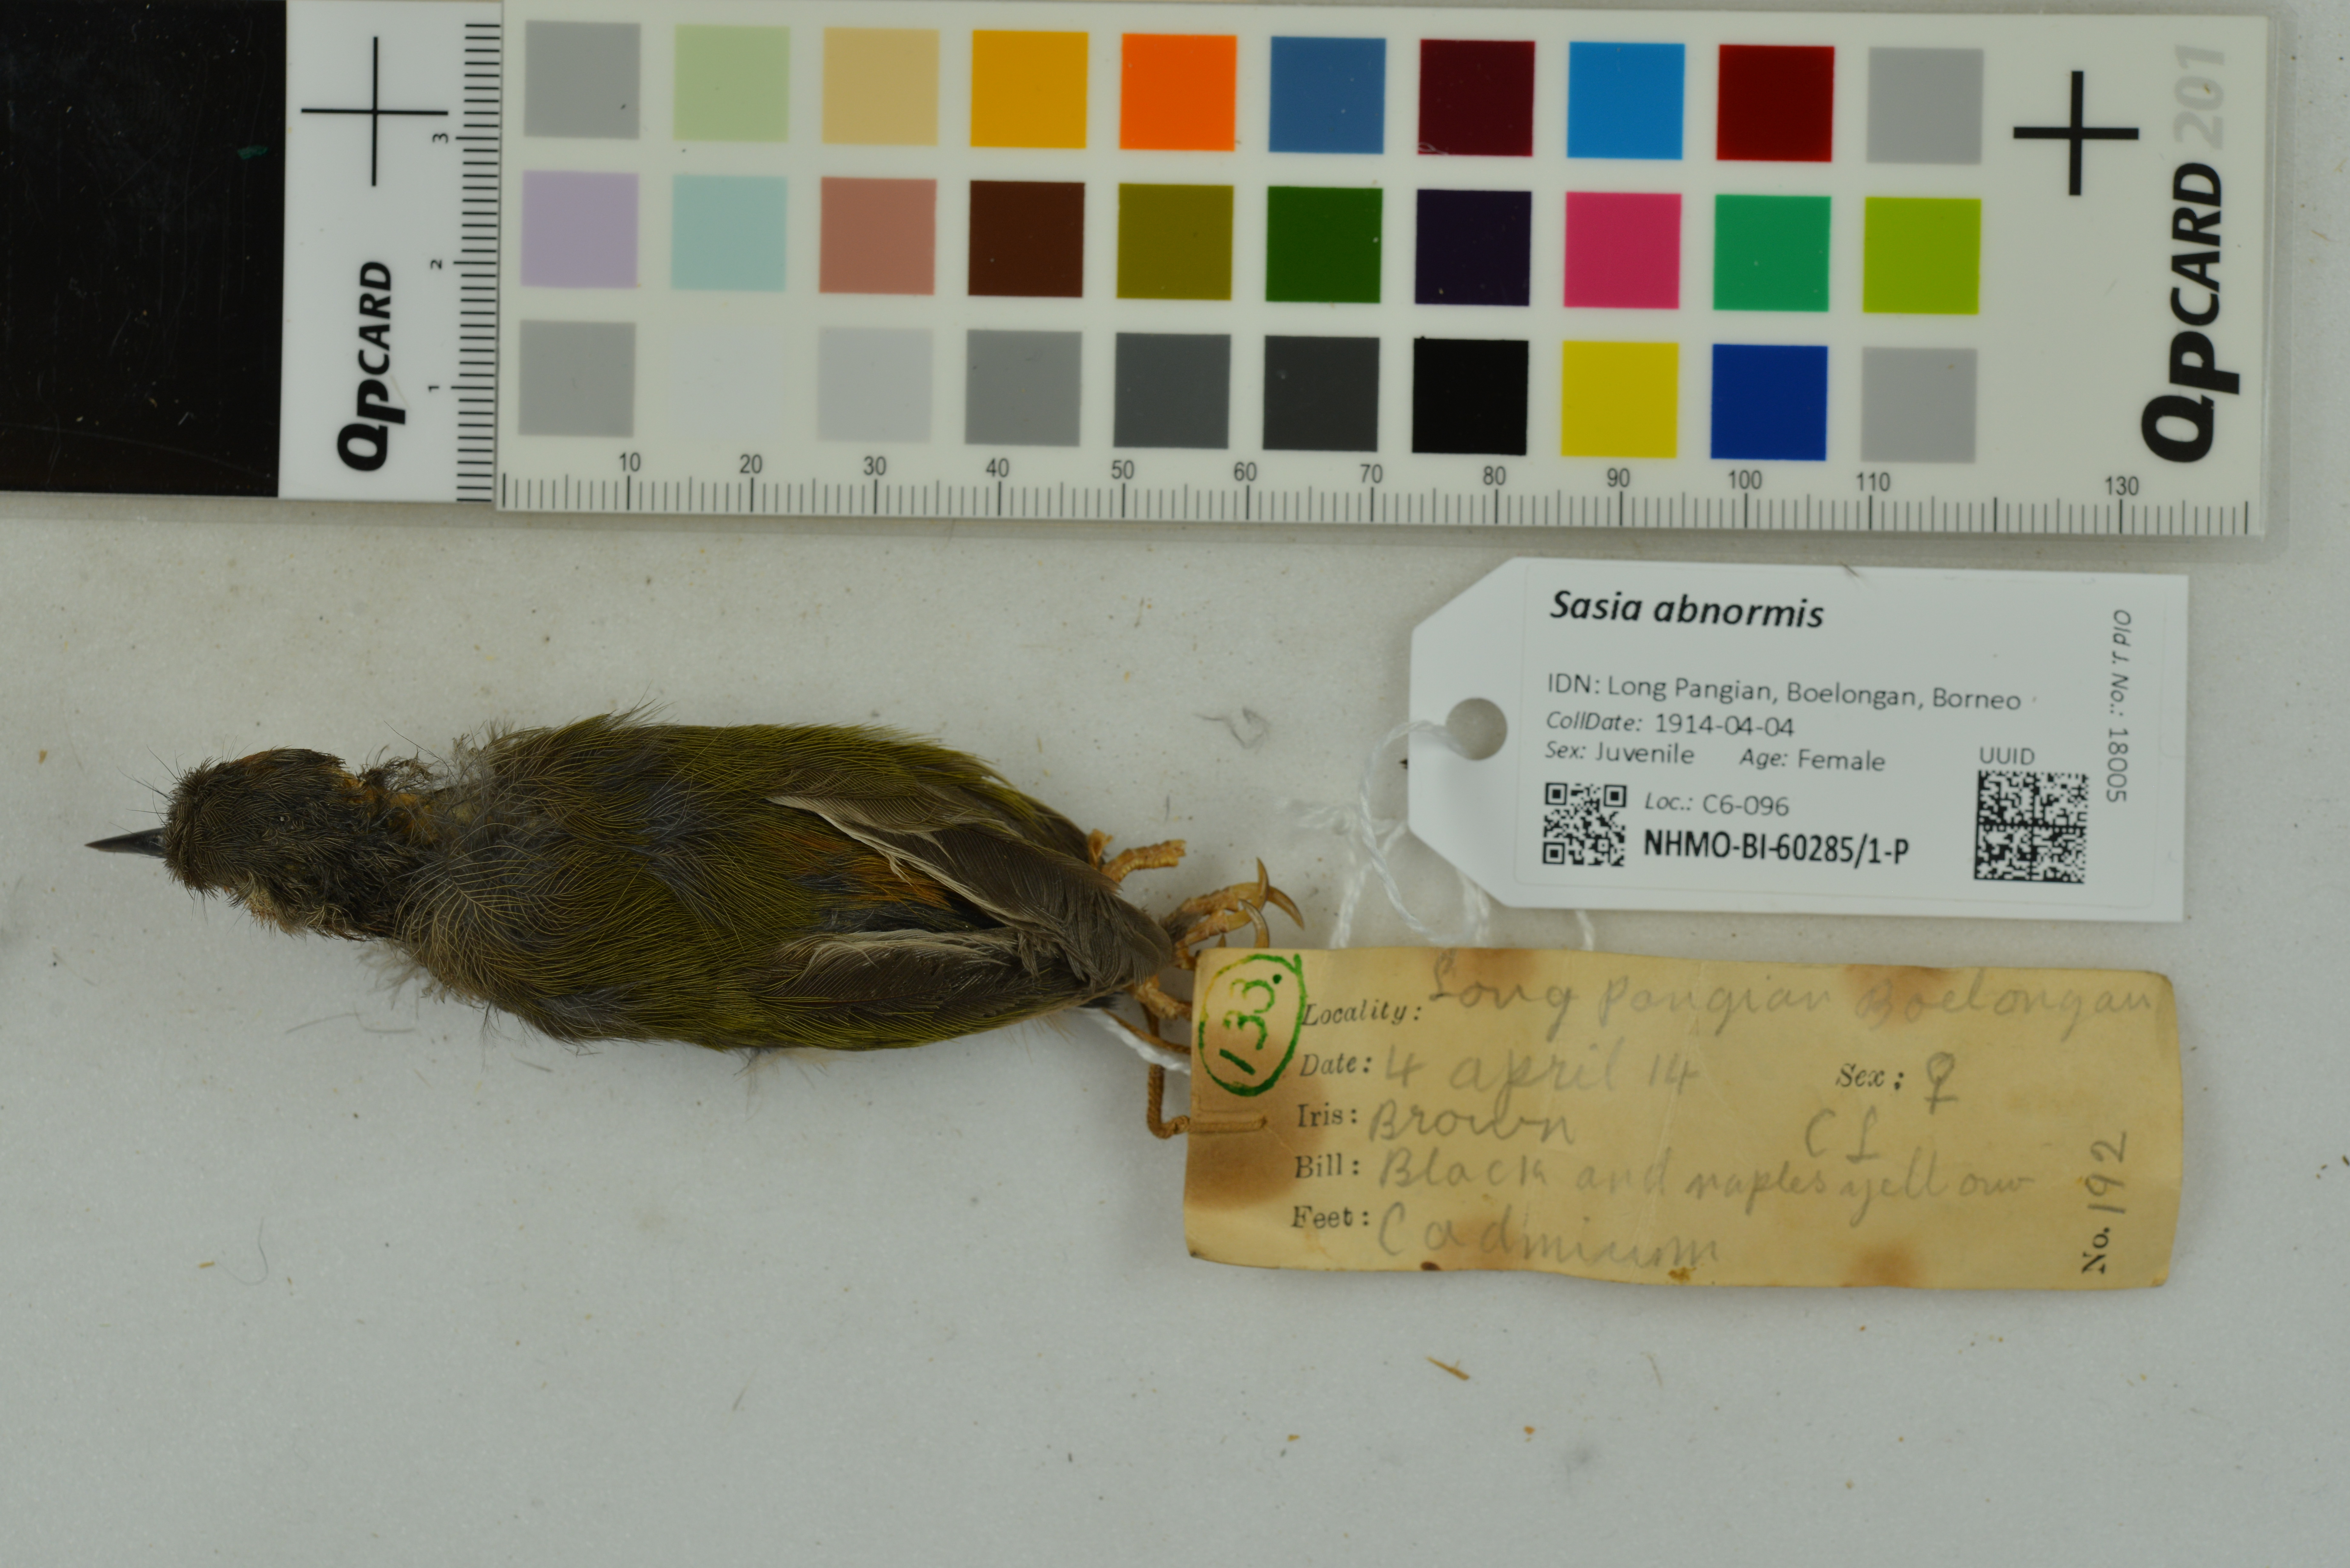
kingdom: Animalia
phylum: Chordata
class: Aves
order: Piciformes
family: Picidae
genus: Sasia
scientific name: Sasia abnormis
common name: Rufous piculet
